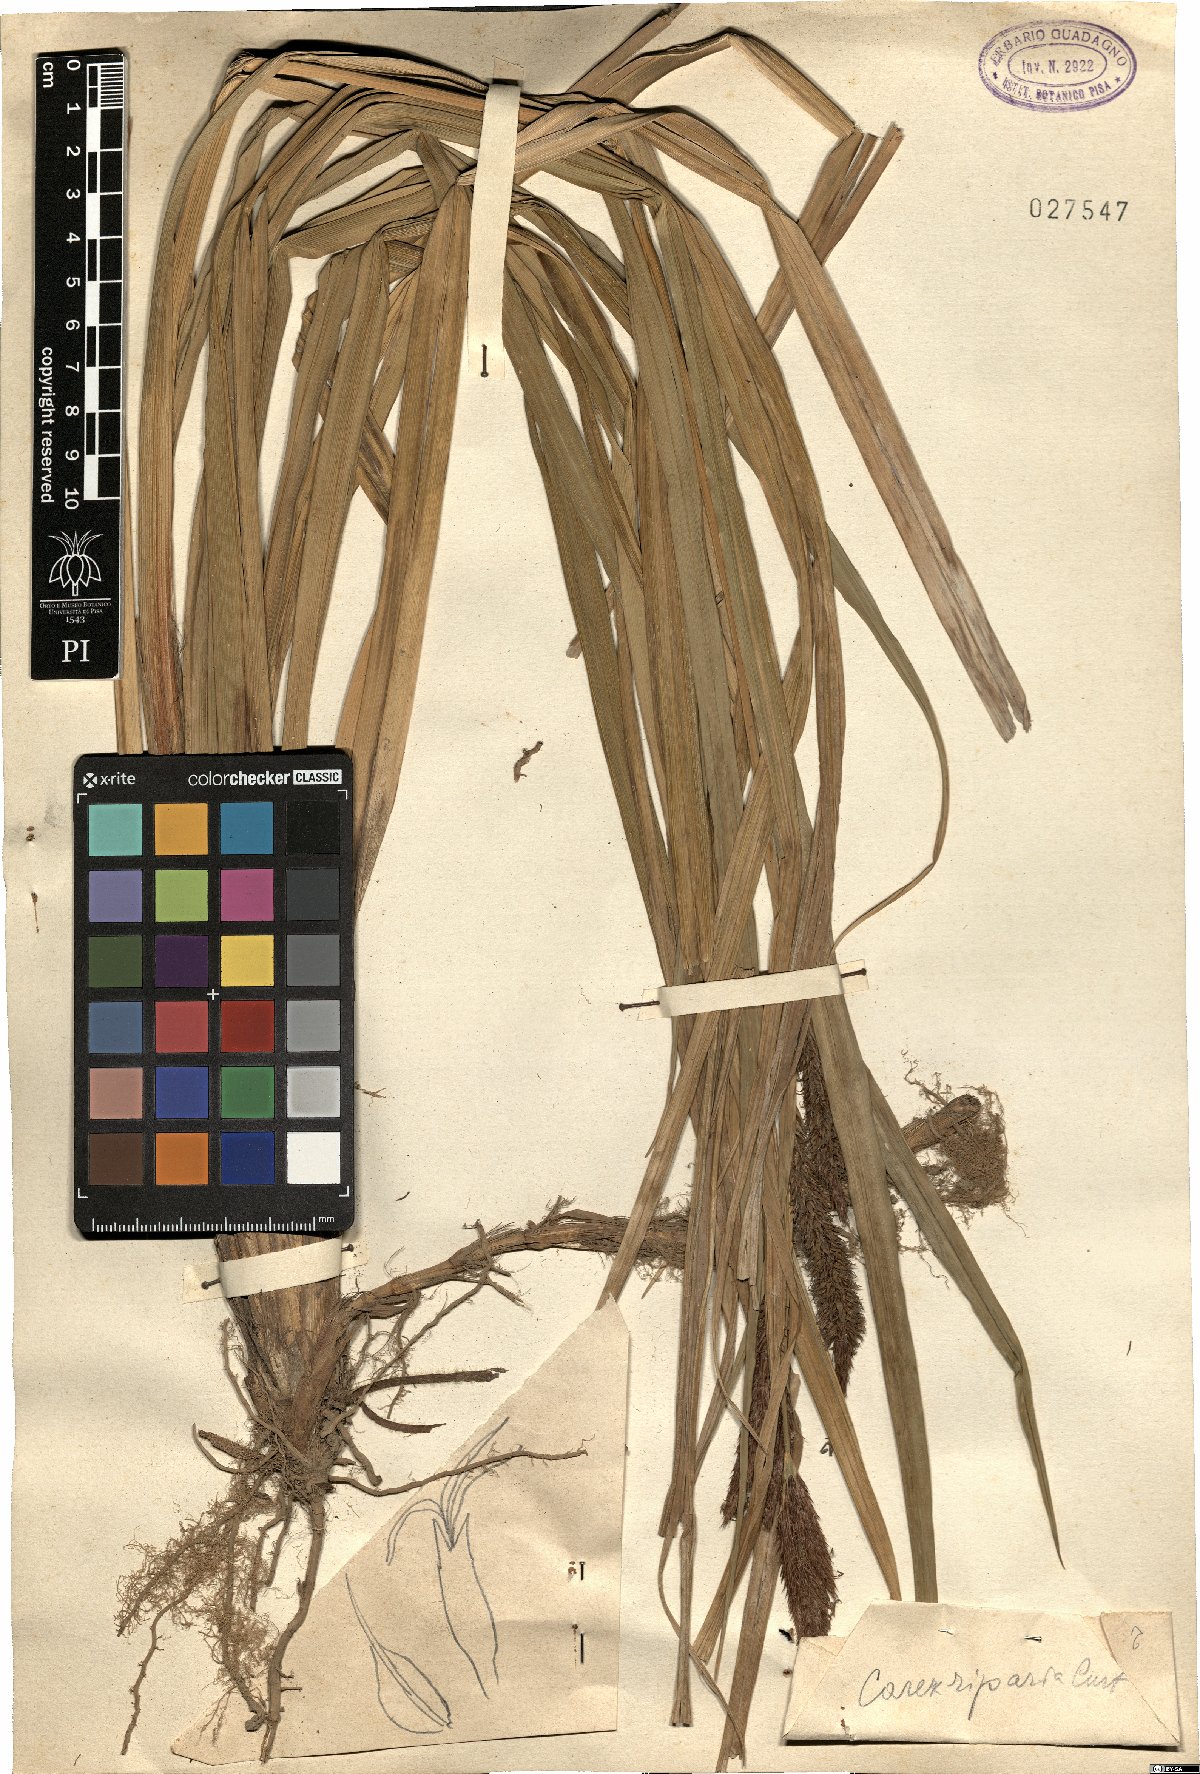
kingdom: Plantae
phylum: Tracheophyta
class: Liliopsida
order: Poales
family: Cyperaceae
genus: Carex
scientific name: Carex riparia
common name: Greater pond-sedge
